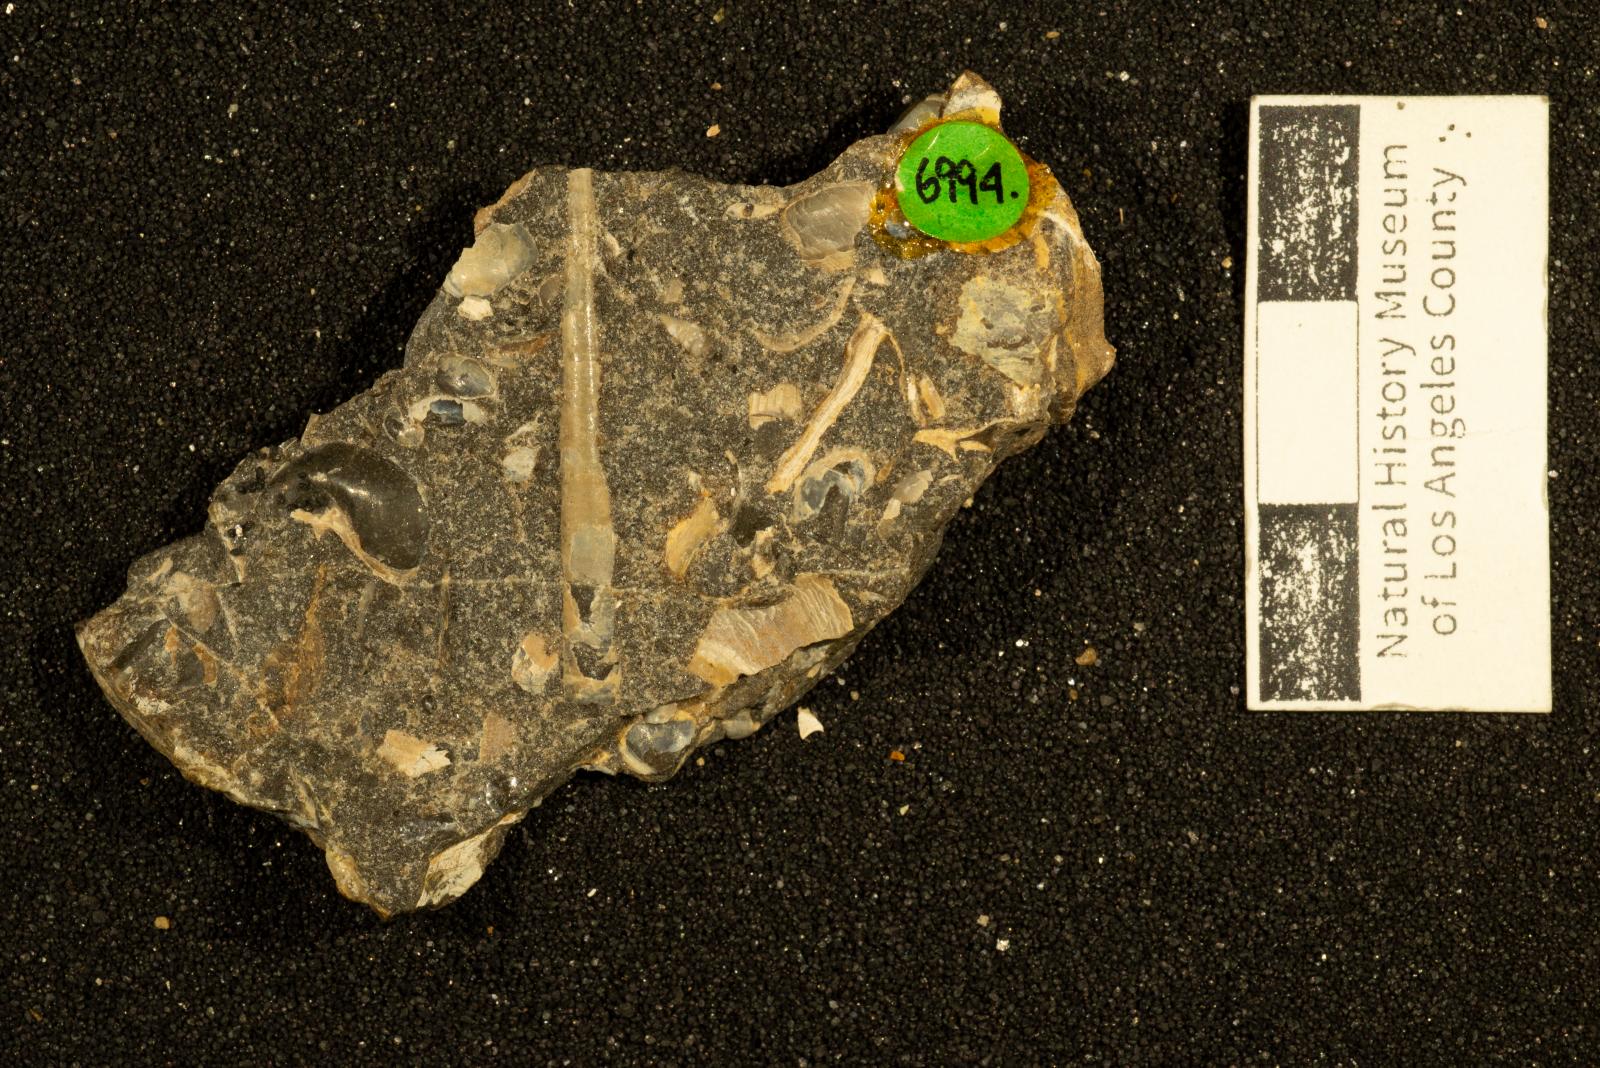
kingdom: Animalia
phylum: Mollusca
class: Scaphopoda
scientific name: Scaphopoda
